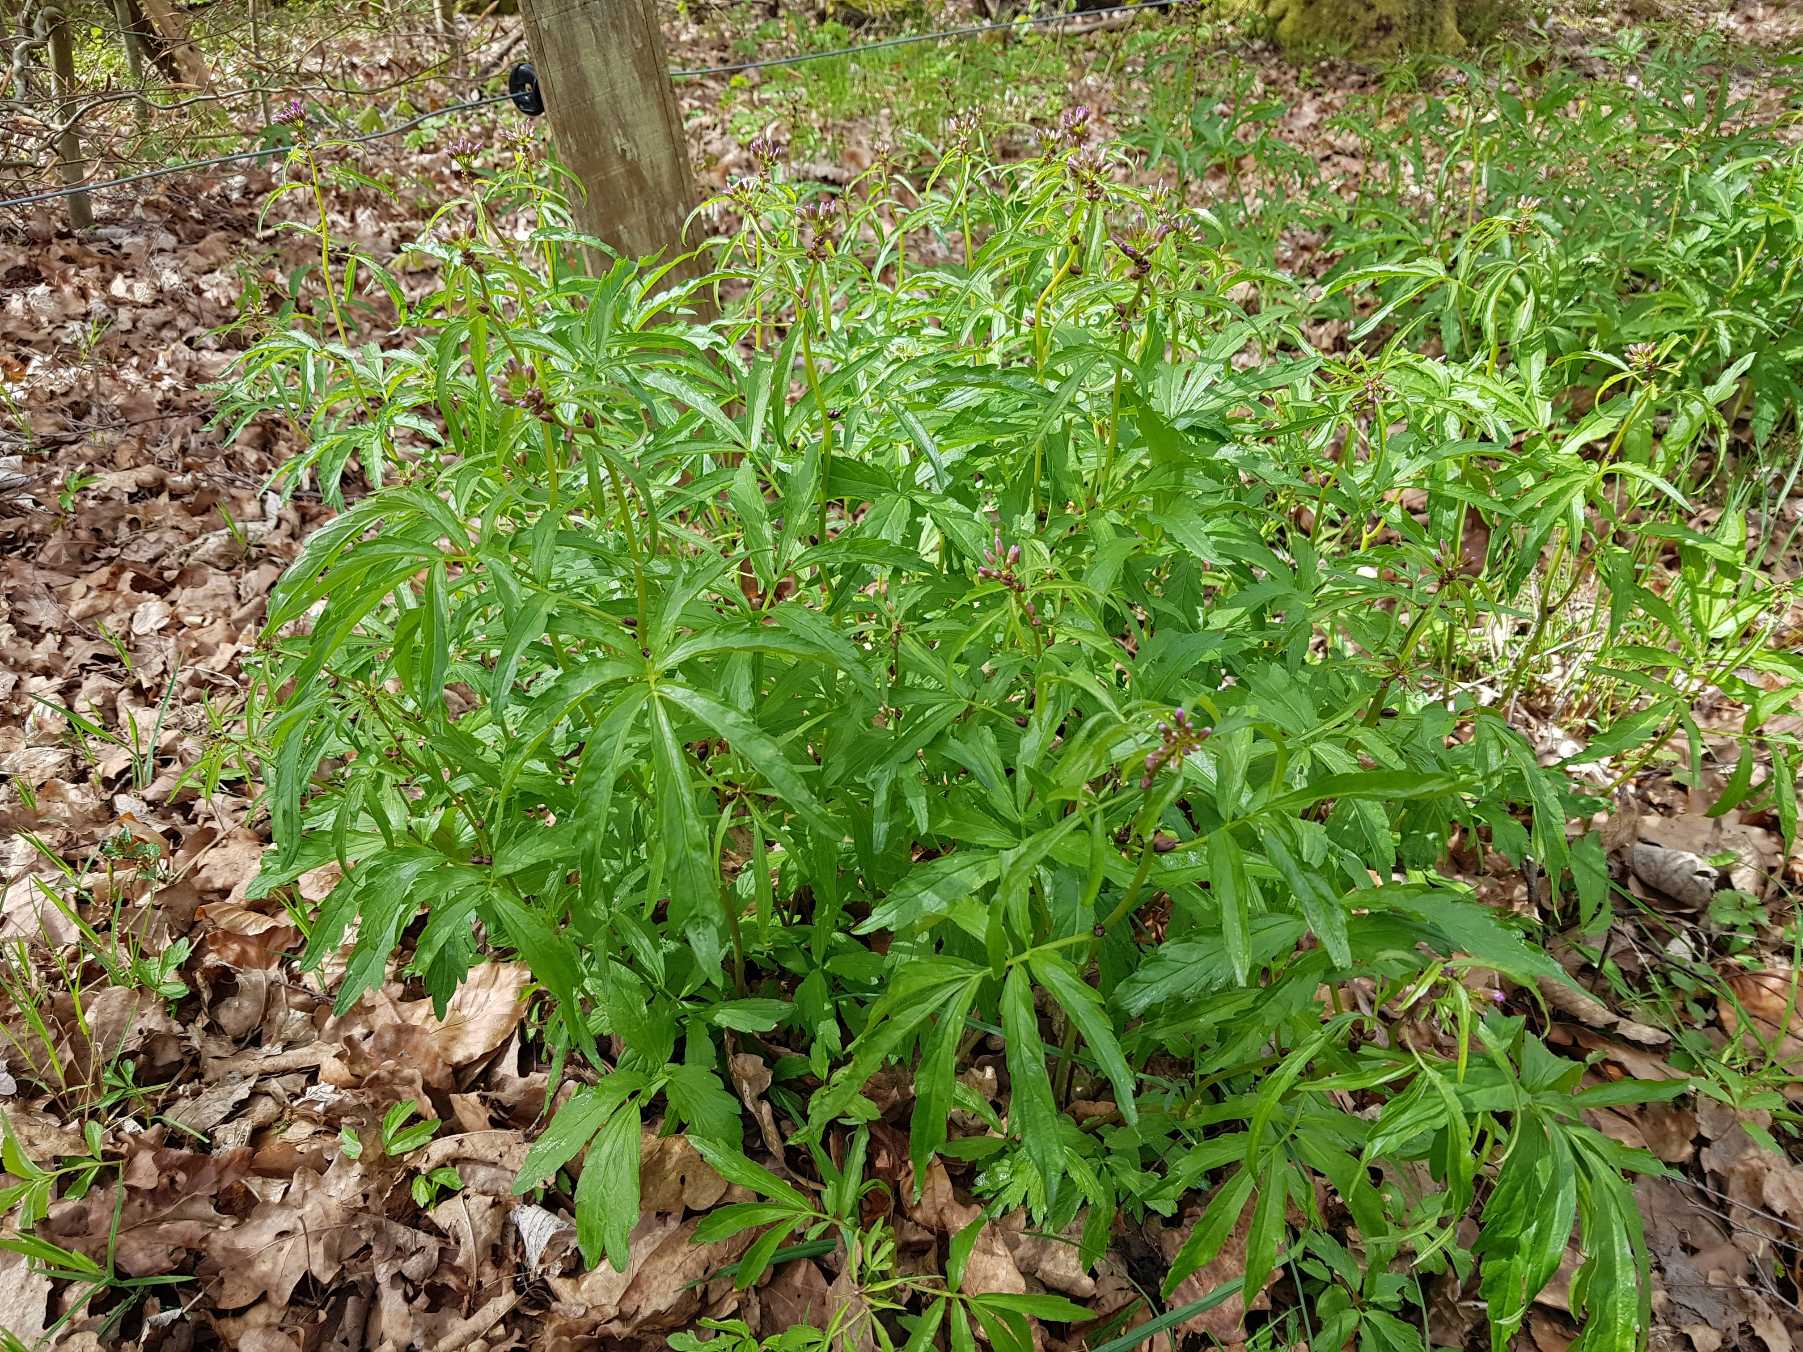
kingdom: Plantae
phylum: Tracheophyta
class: Magnoliopsida
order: Brassicales
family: Brassicaceae
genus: Cardamine
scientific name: Cardamine bulbifera
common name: Tandrod
